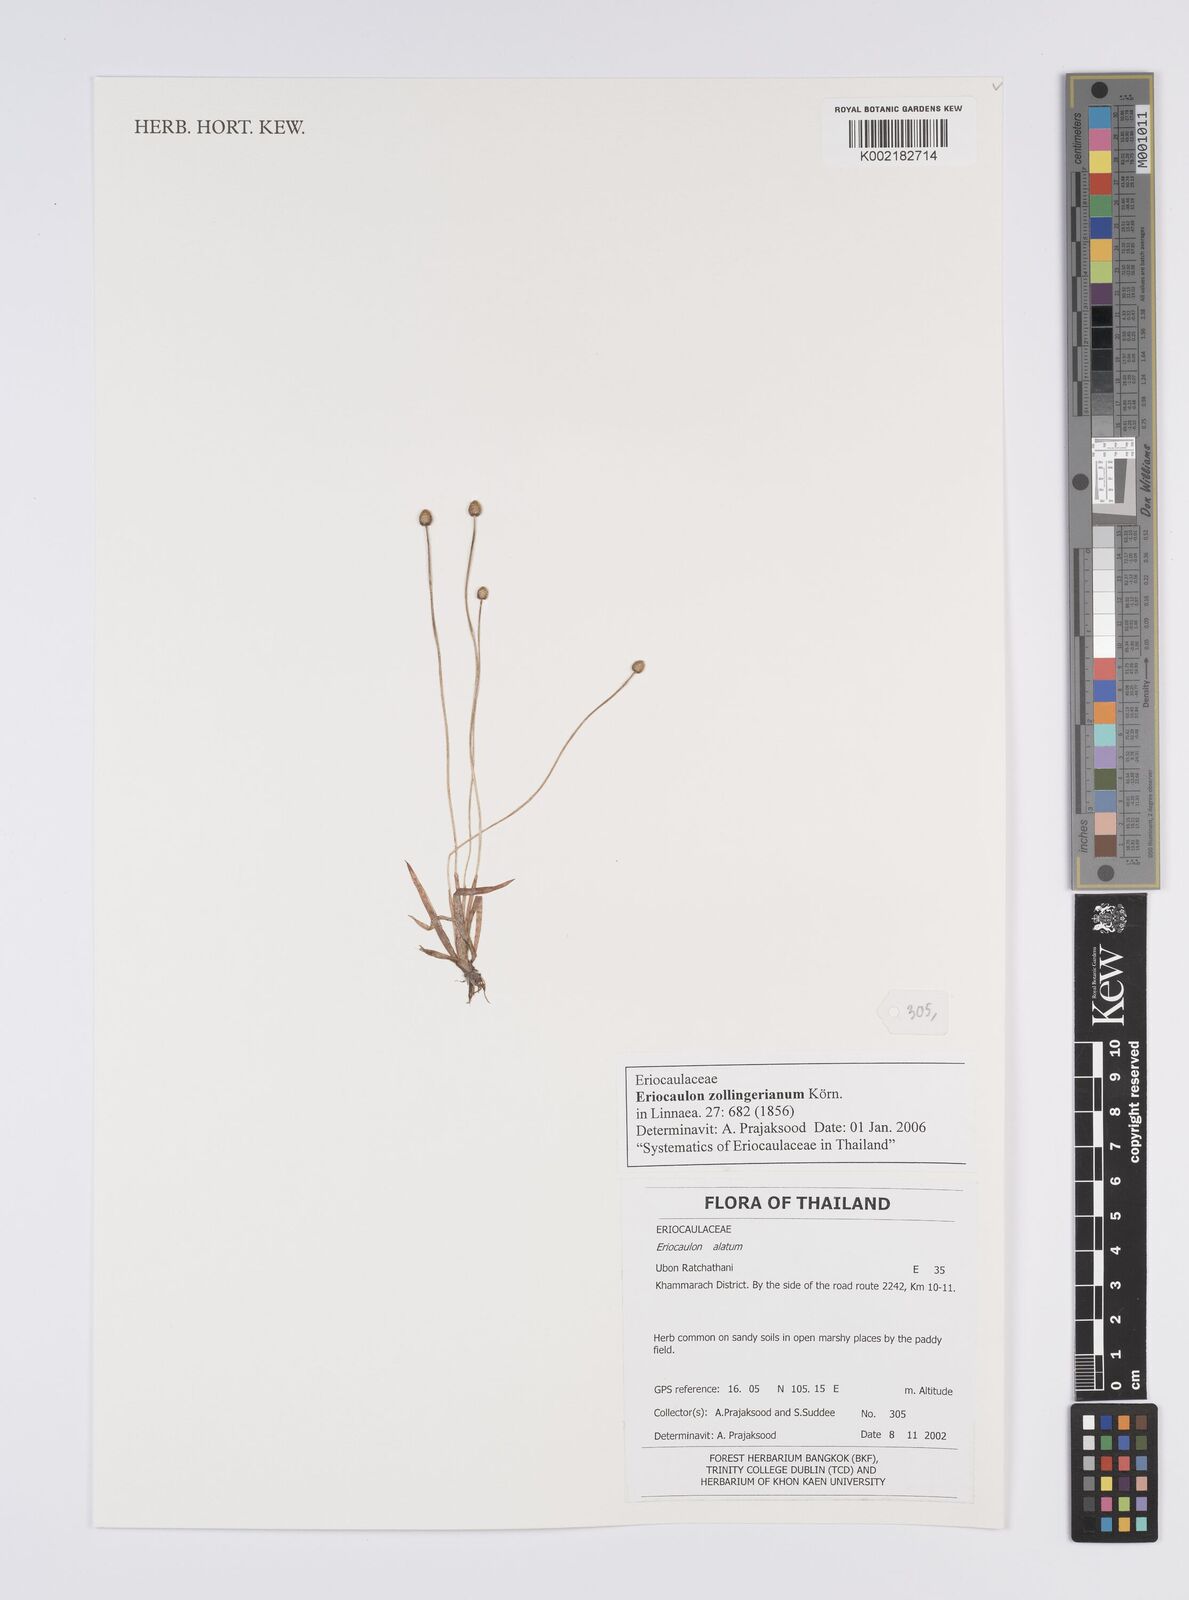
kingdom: Plantae
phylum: Tracheophyta
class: Liliopsida
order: Poales
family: Eriocaulaceae
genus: Eriocaulon
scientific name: Eriocaulon zollingerianum
